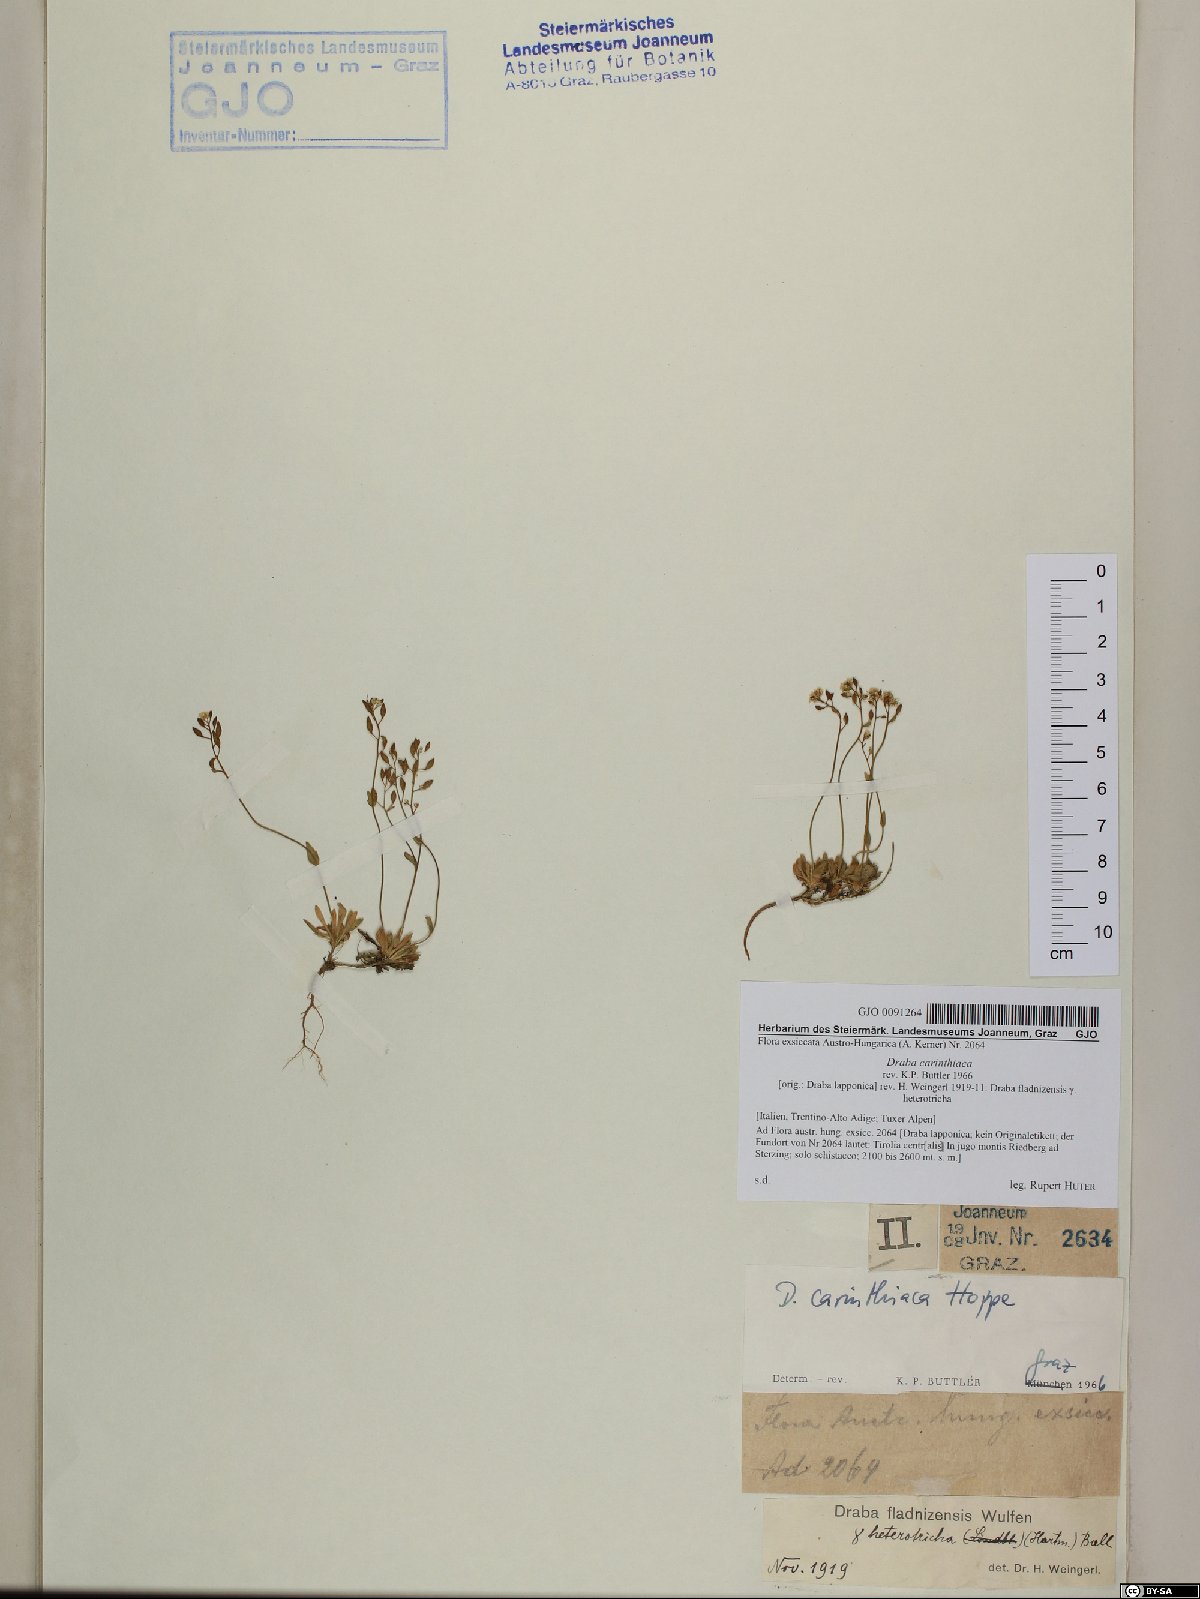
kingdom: Plantae
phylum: Tracheophyta
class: Magnoliopsida
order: Brassicales
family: Brassicaceae
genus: Draba
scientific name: Draba siliquosa
